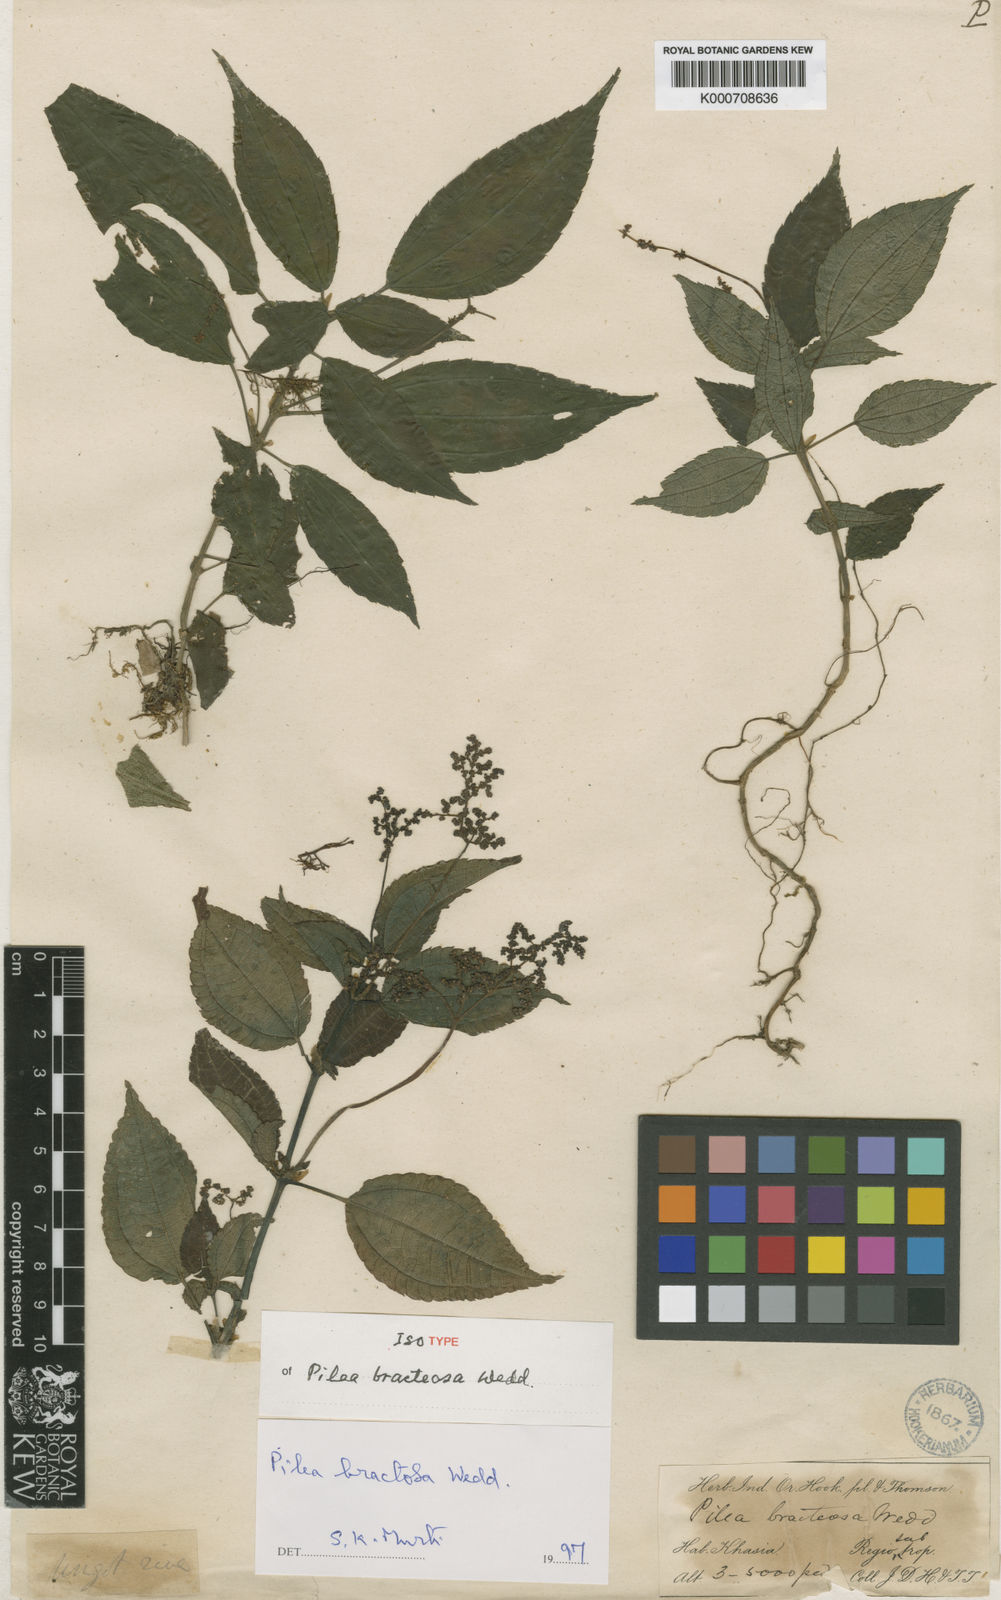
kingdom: Plantae
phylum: Tracheophyta
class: Magnoliopsida
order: Rosales
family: Urticaceae
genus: Pilea
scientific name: Pilea bracteosa
